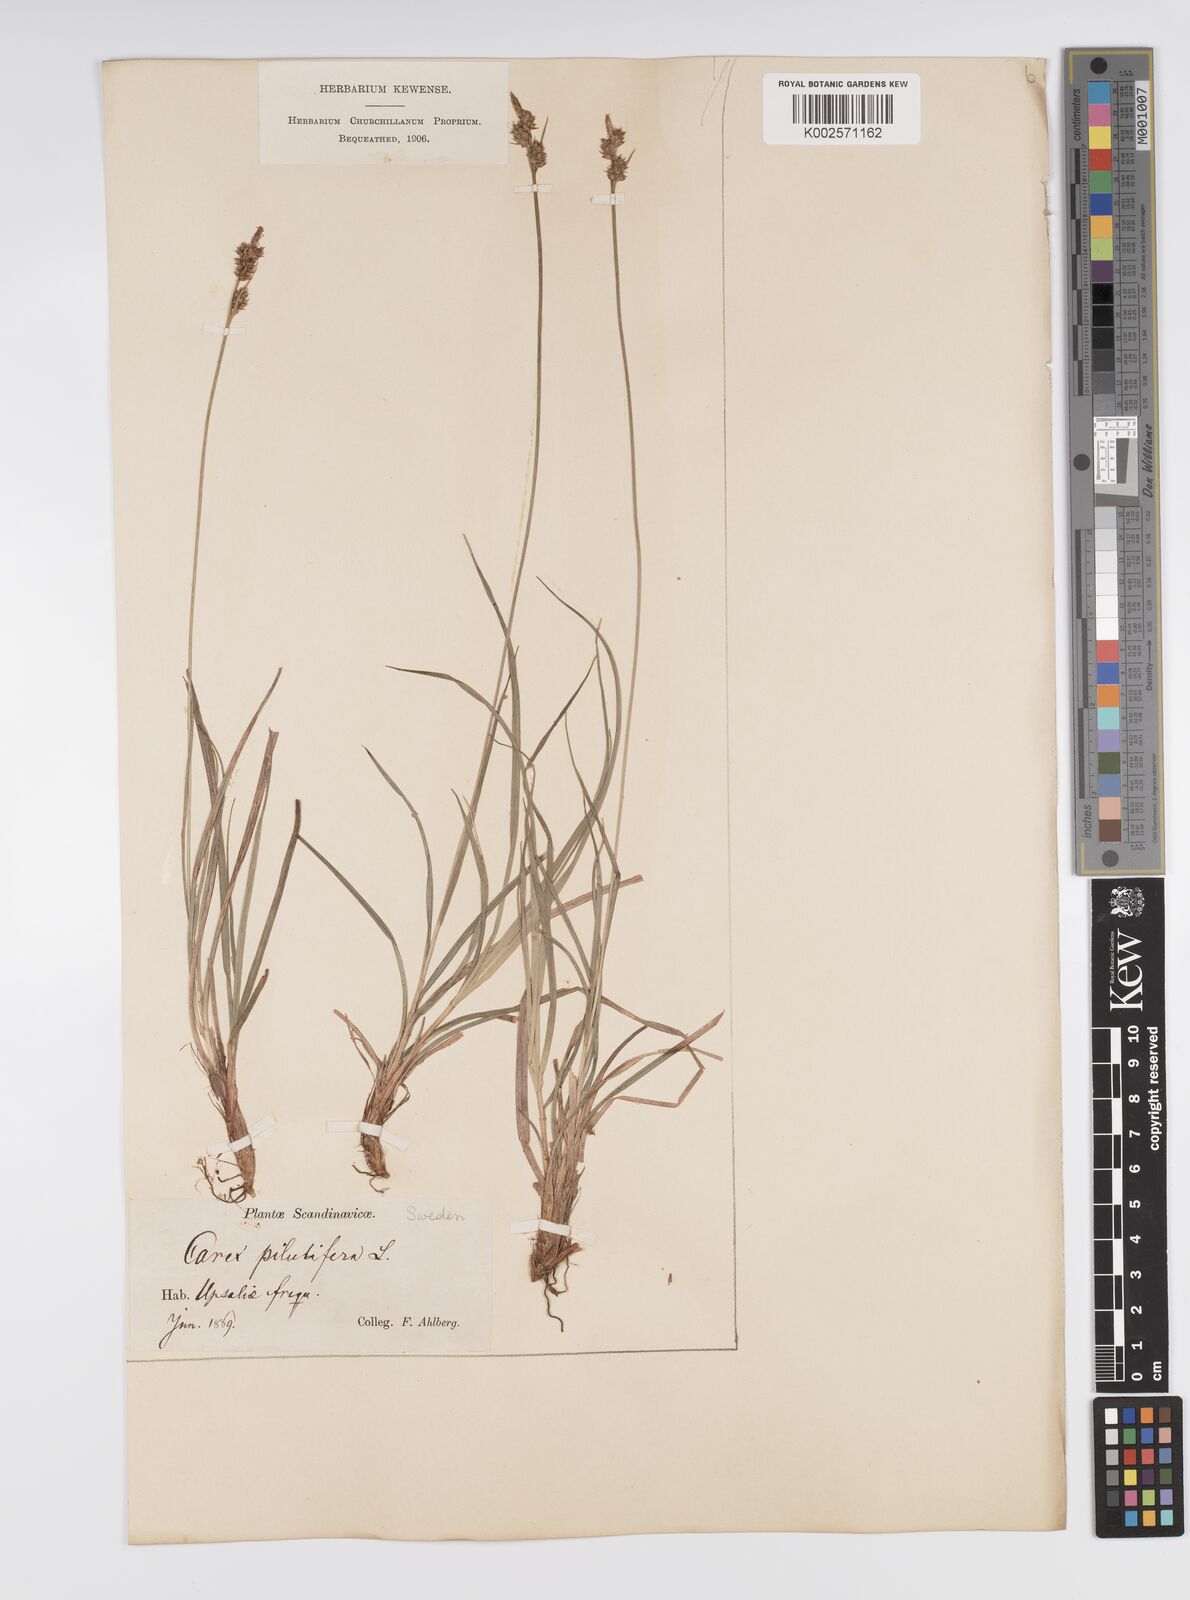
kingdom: Plantae
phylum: Tracheophyta
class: Liliopsida
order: Poales
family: Cyperaceae
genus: Carex
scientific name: Carex pilulifera
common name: Pill sedge
